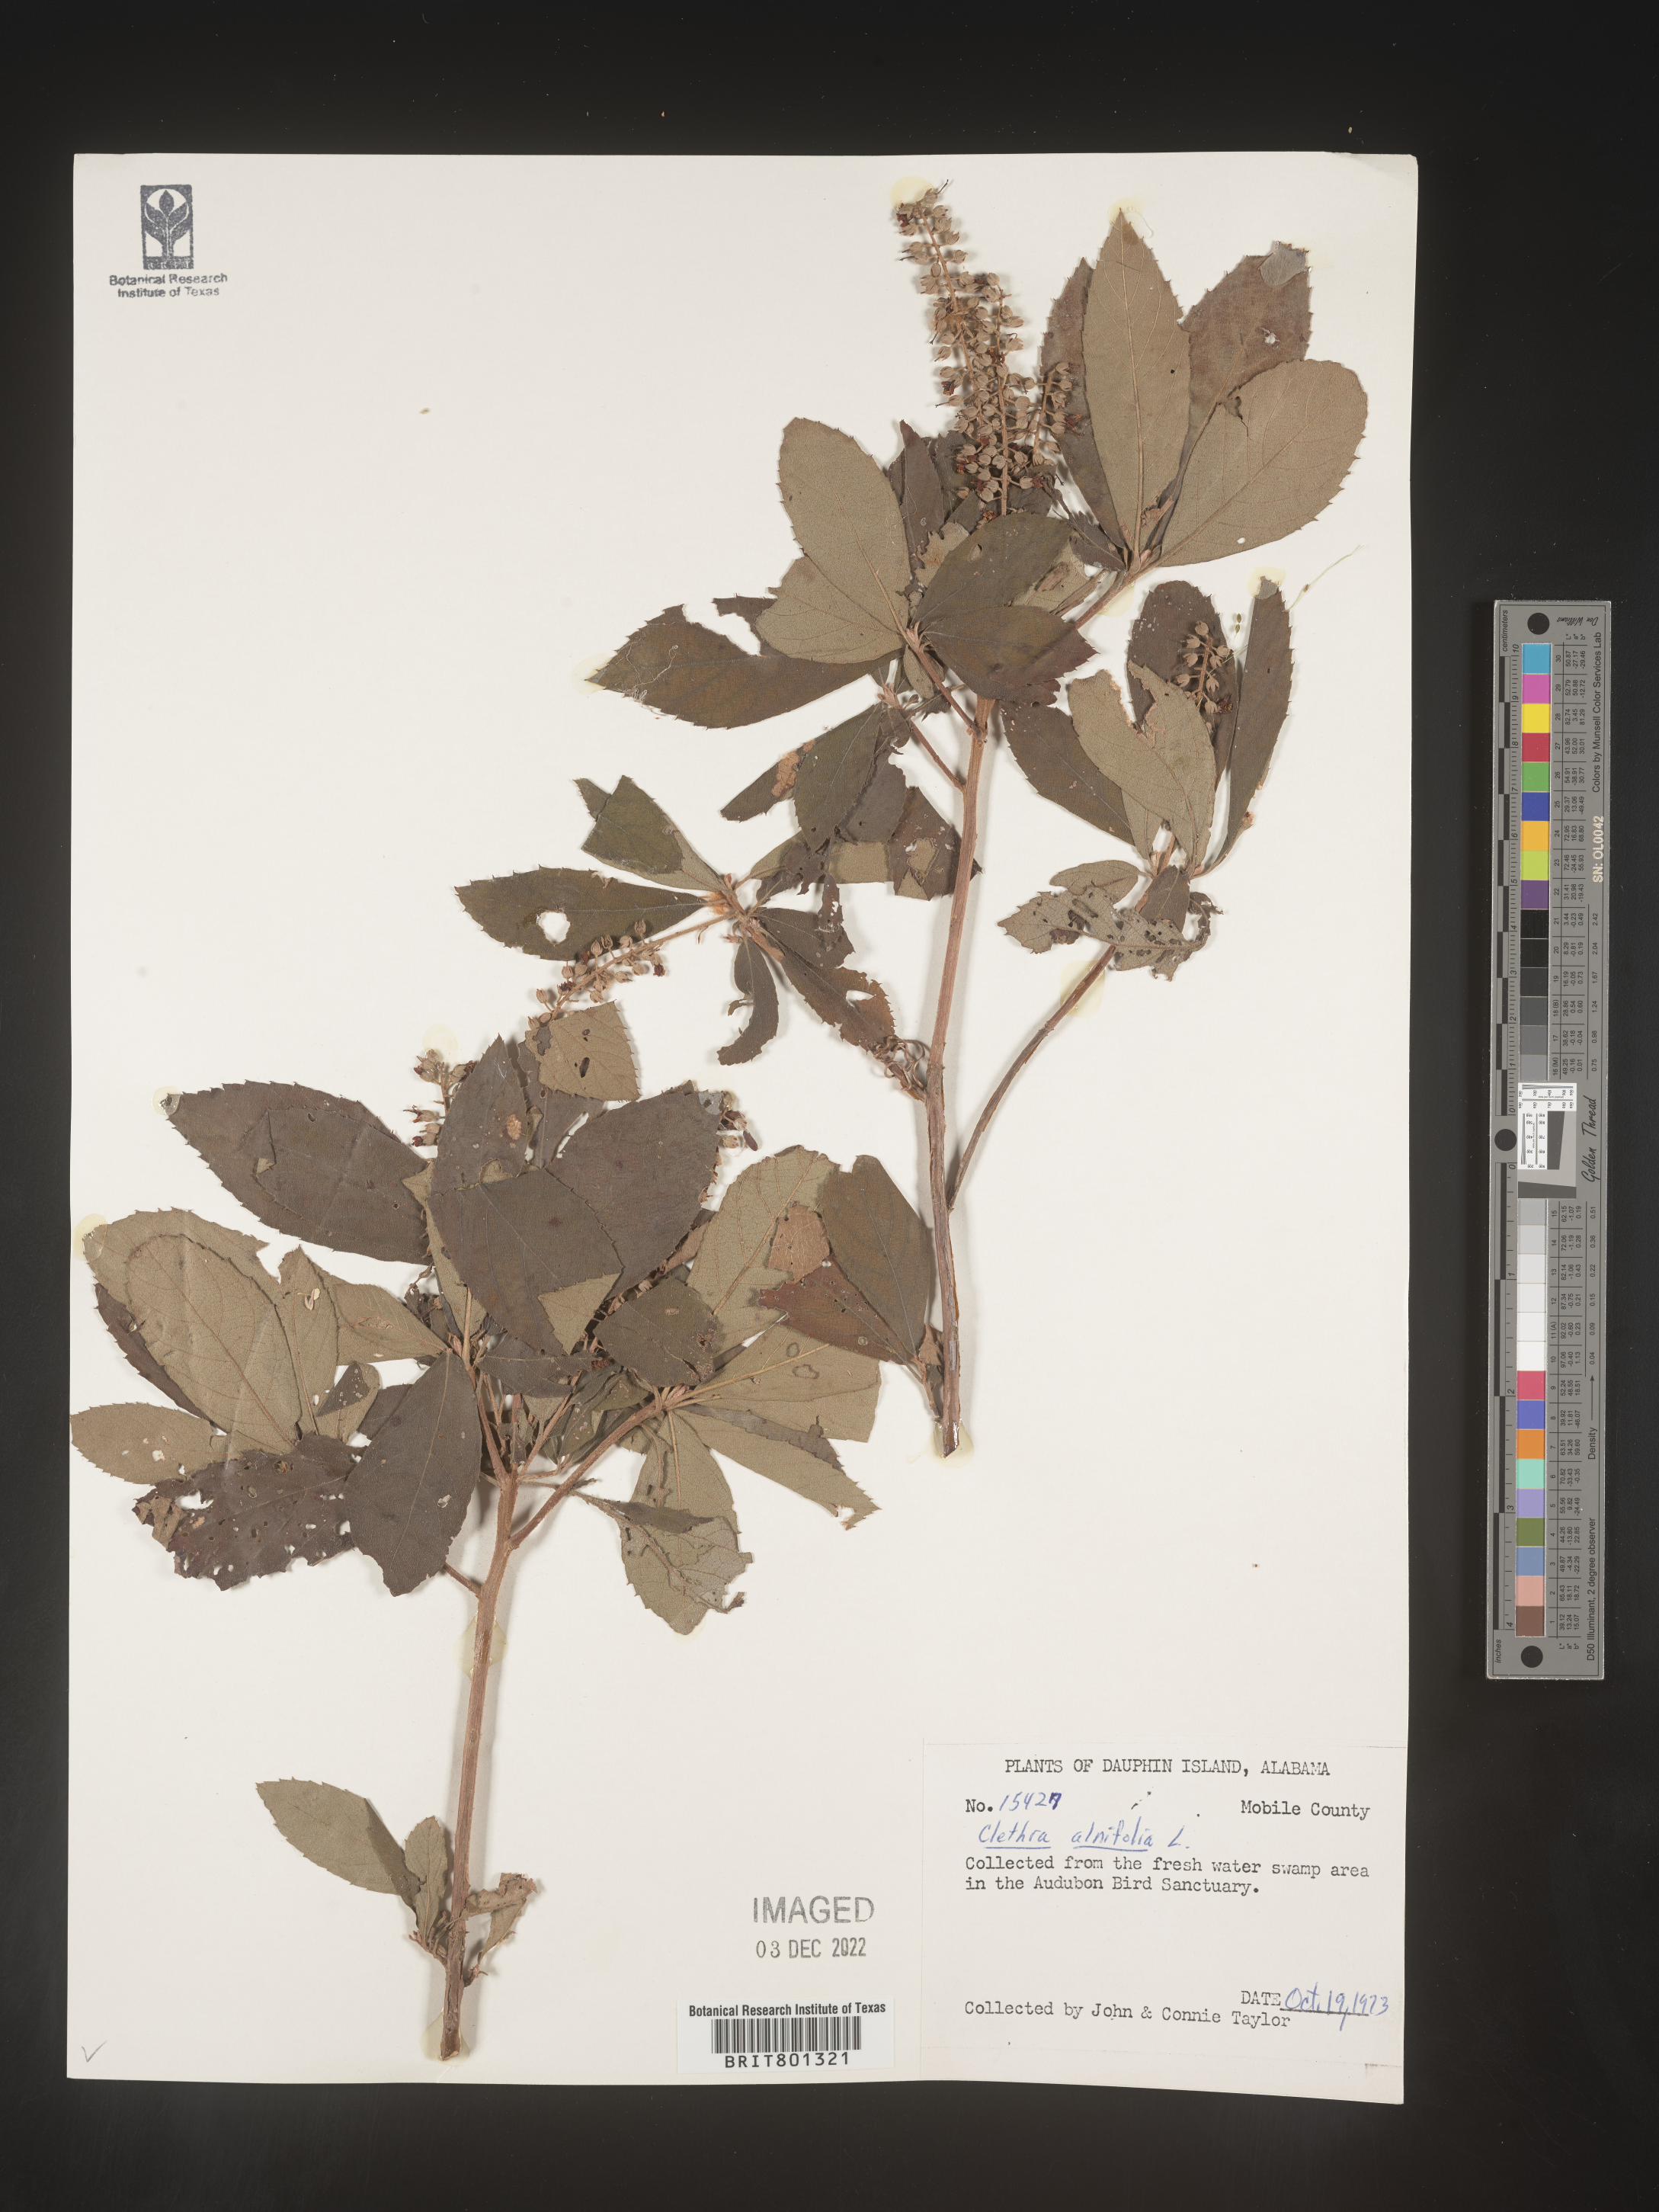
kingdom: Plantae
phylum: Tracheophyta
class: Magnoliopsida
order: Ericales
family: Clethraceae
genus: Clethra
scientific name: Clethra alnifolia
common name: Sweet pepperbush
